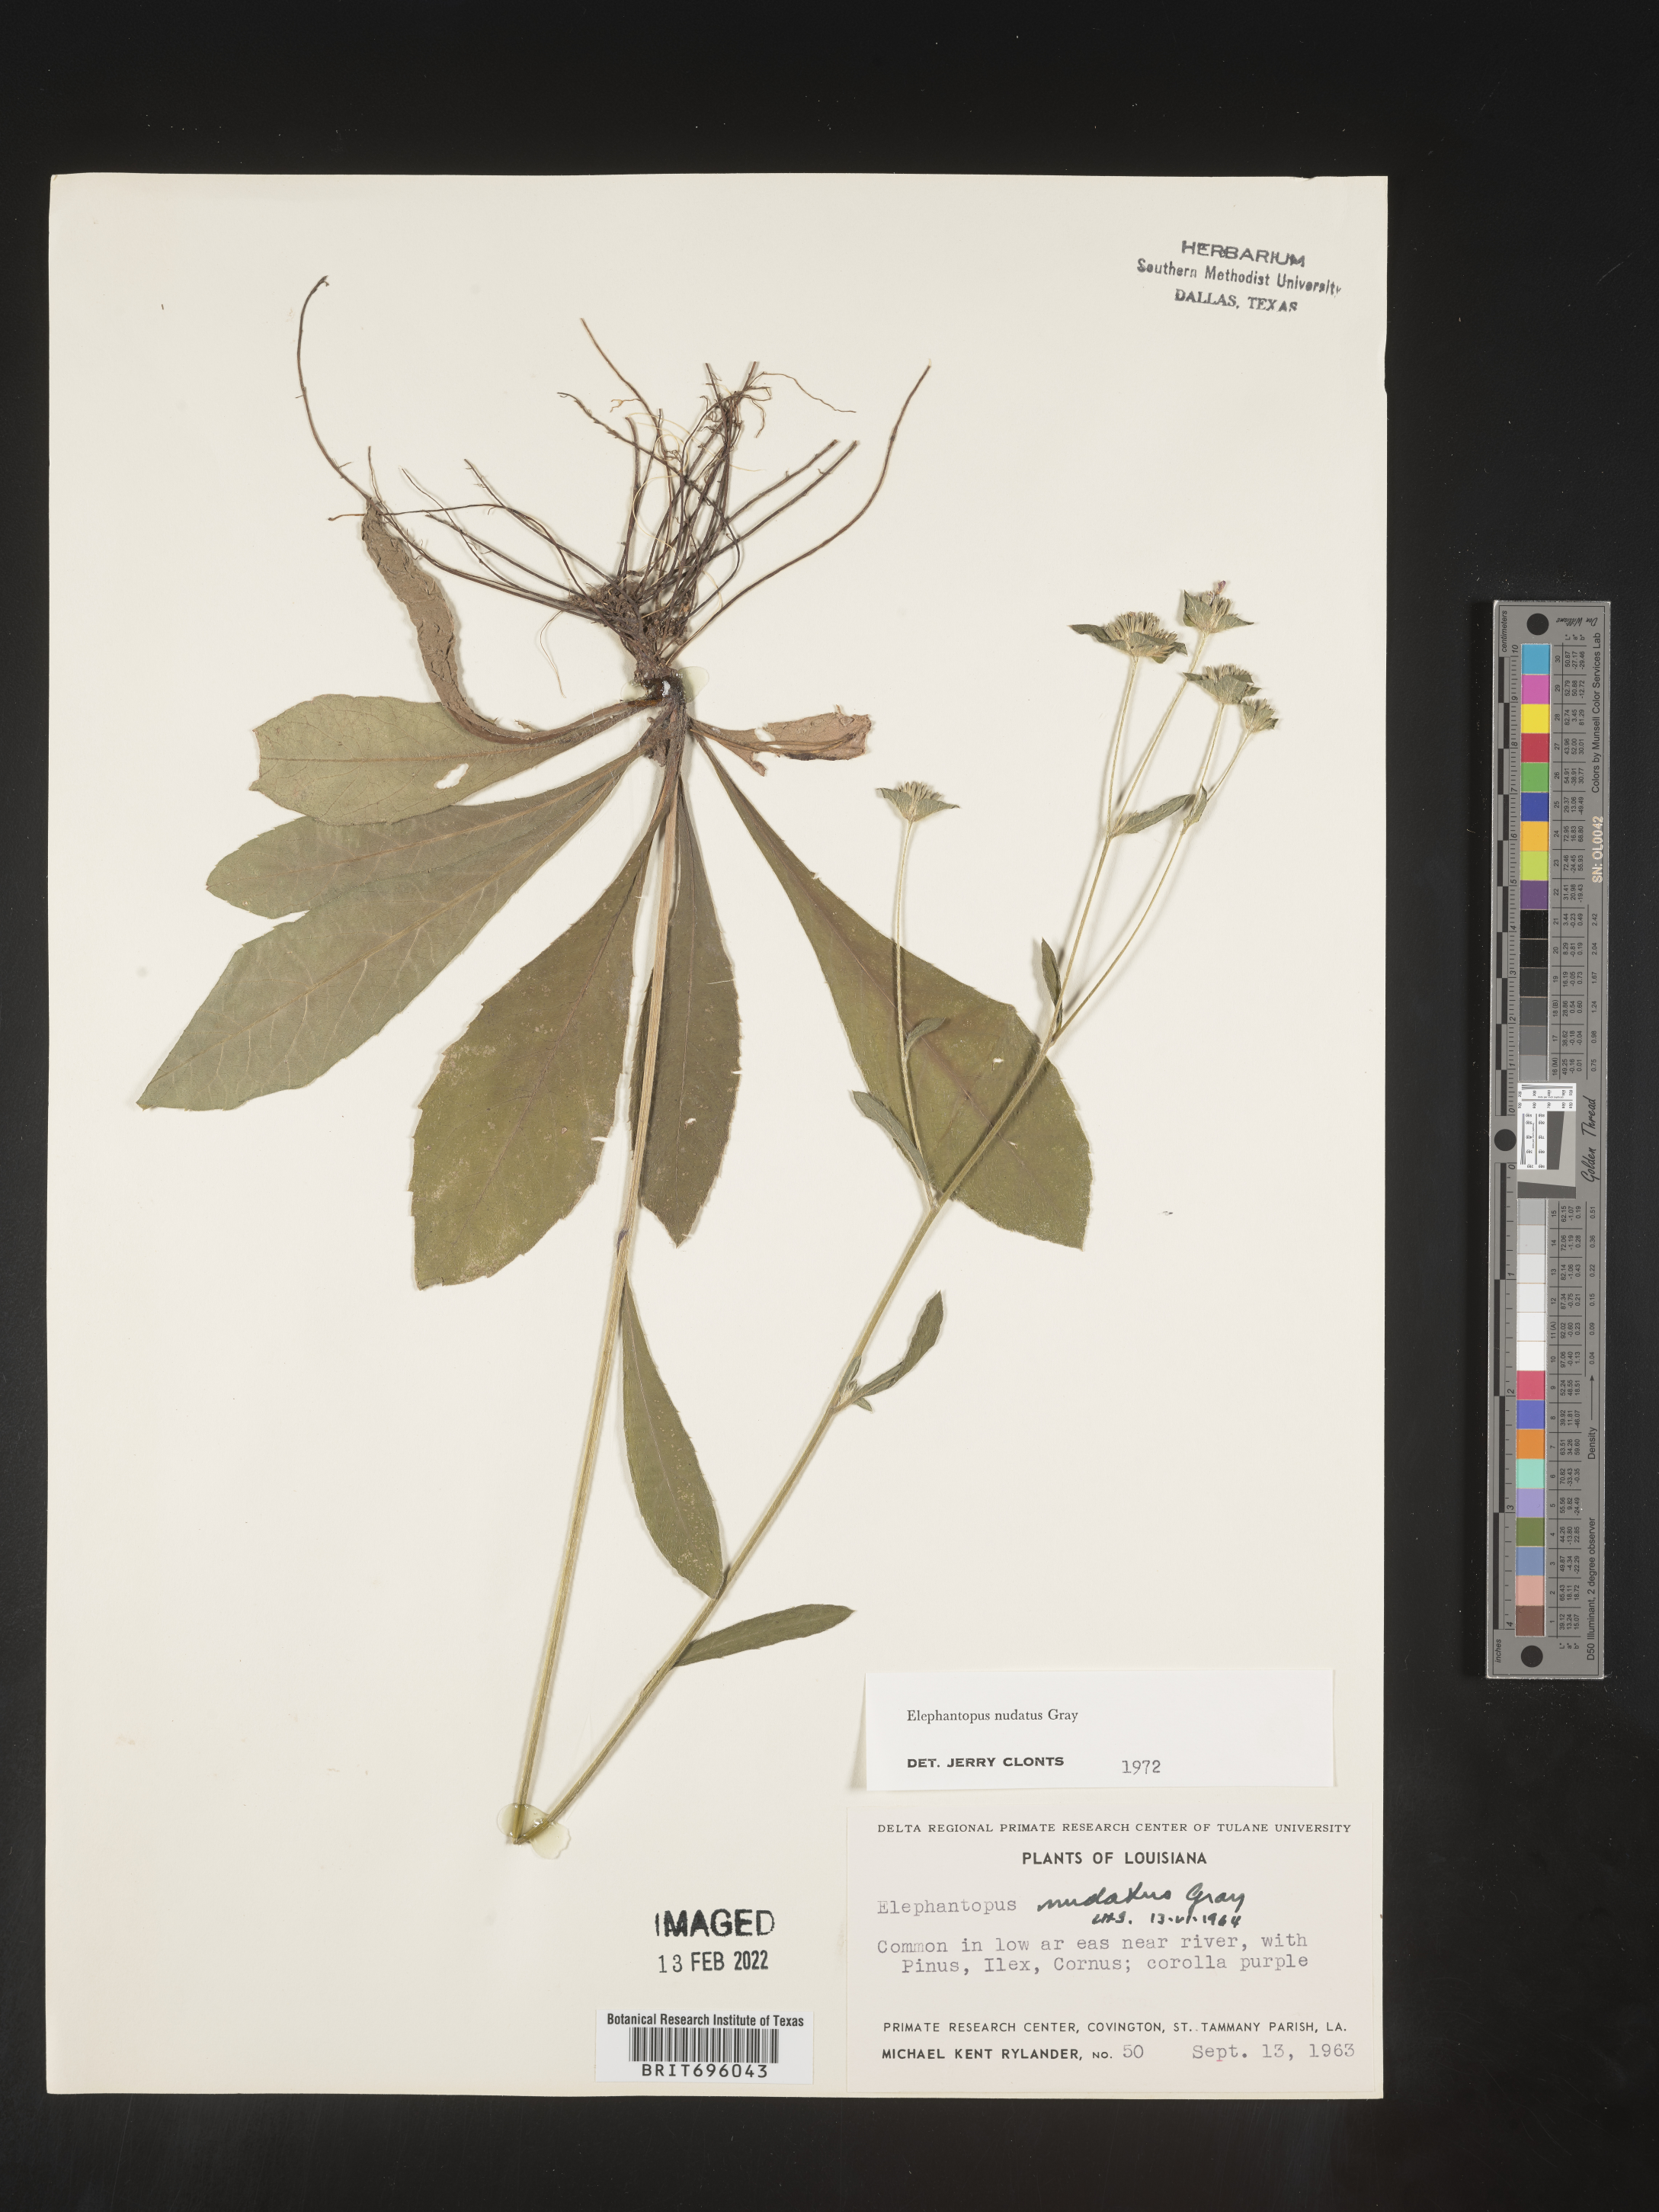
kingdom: Plantae
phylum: Tracheophyta
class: Magnoliopsida
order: Asterales
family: Asteraceae
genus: Elephantopus
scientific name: Elephantopus nudatus
